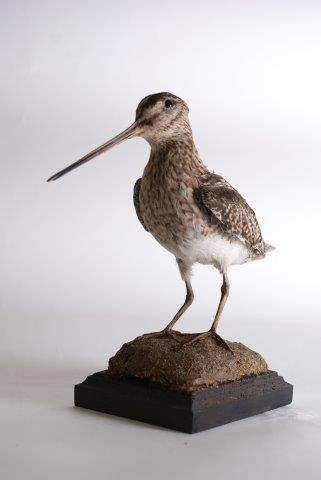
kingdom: Animalia
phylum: Chordata
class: Aves
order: Charadriiformes
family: Scolopacidae
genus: Gallinago
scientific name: Gallinago gallinago
